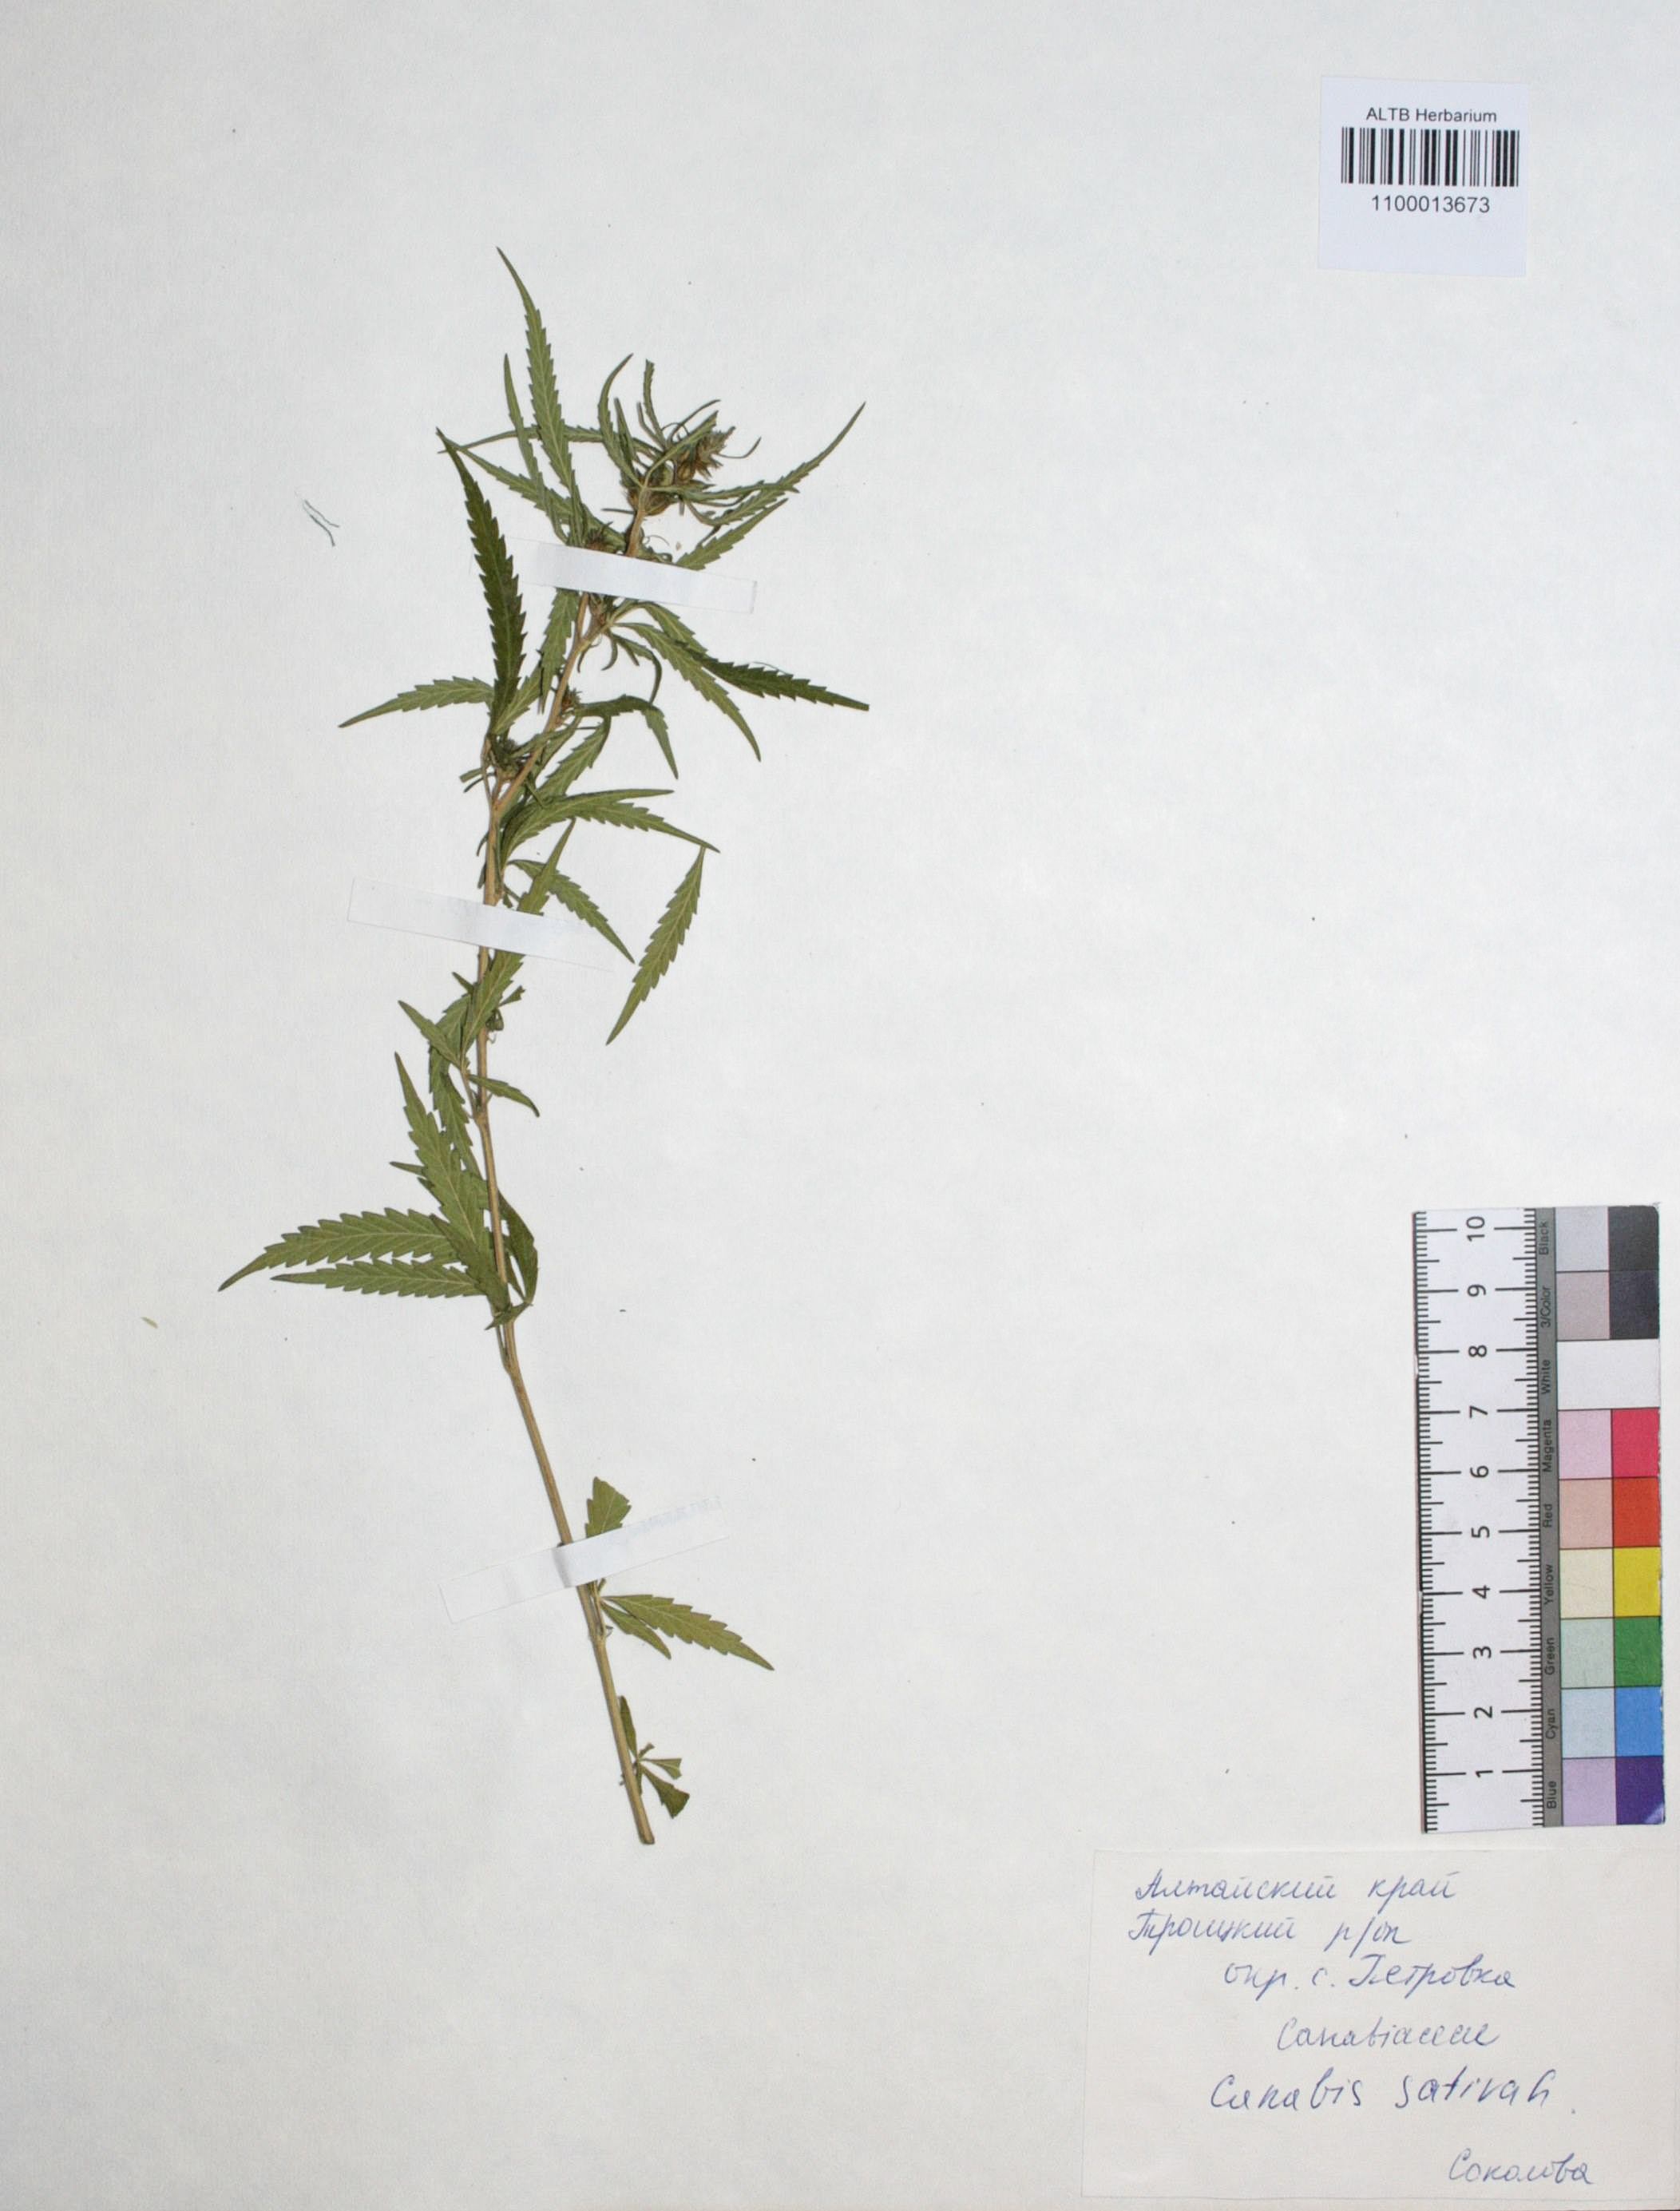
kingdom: Plantae
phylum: Tracheophyta
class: Magnoliopsida
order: Rosales
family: Cannabaceae
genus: Cannabis
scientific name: Cannabis sativa
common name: Hemp
